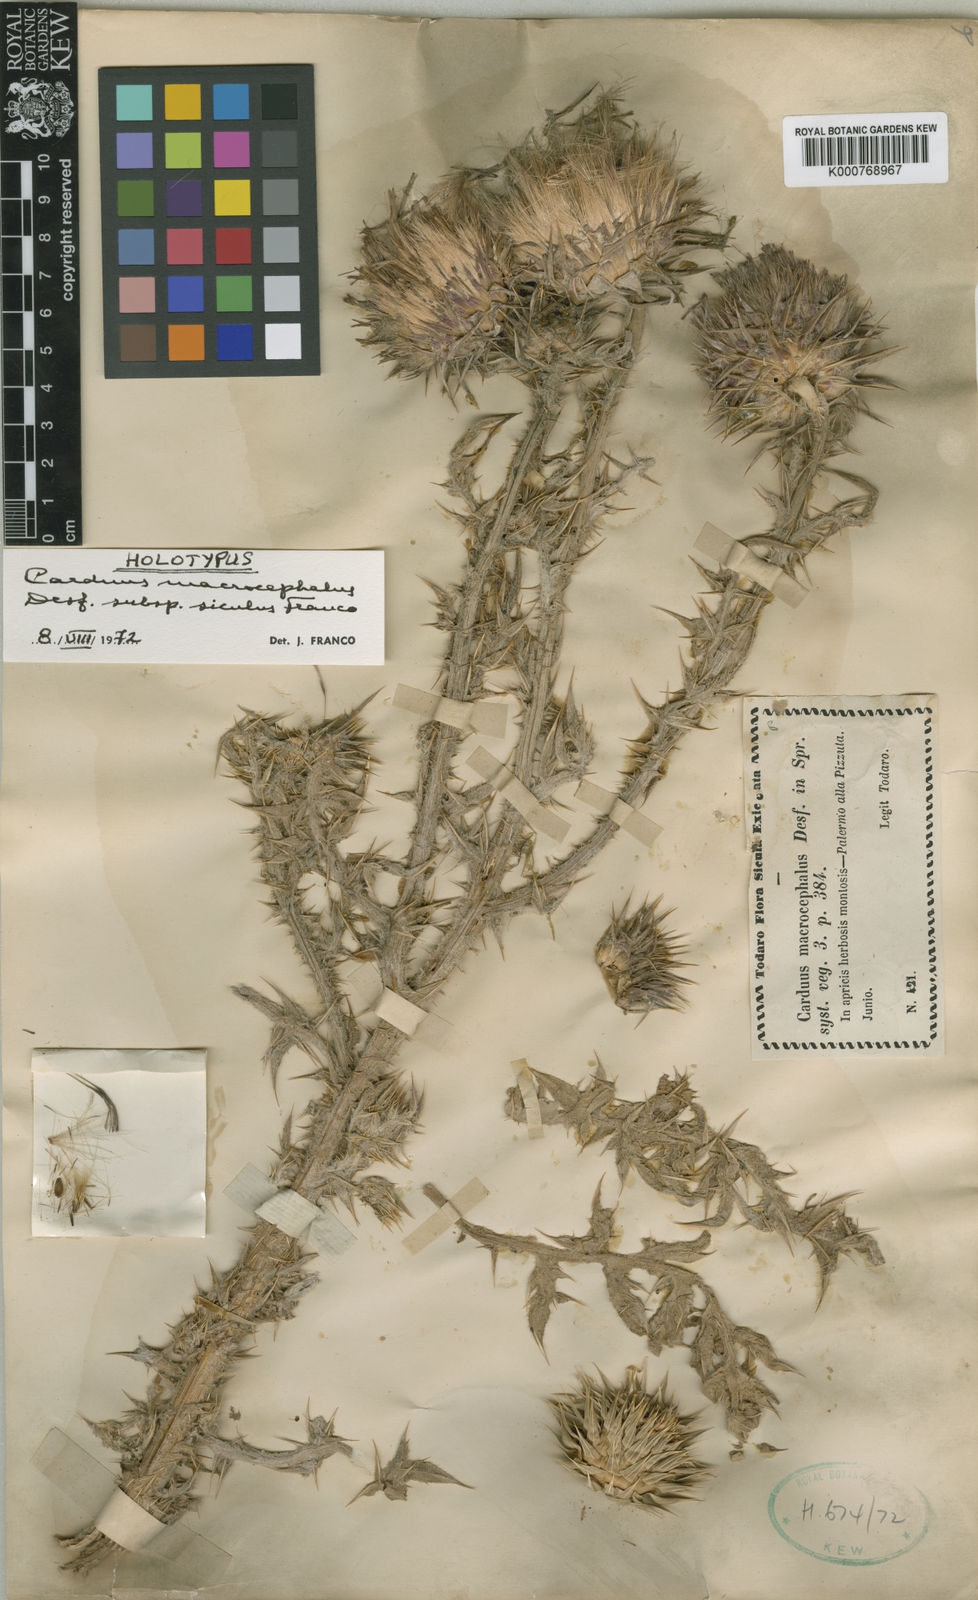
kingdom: Plantae
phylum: Tracheophyta
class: Magnoliopsida
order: Asterales
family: Asteraceae
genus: Carduus
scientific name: Carduus nutans
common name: Musk thistle
